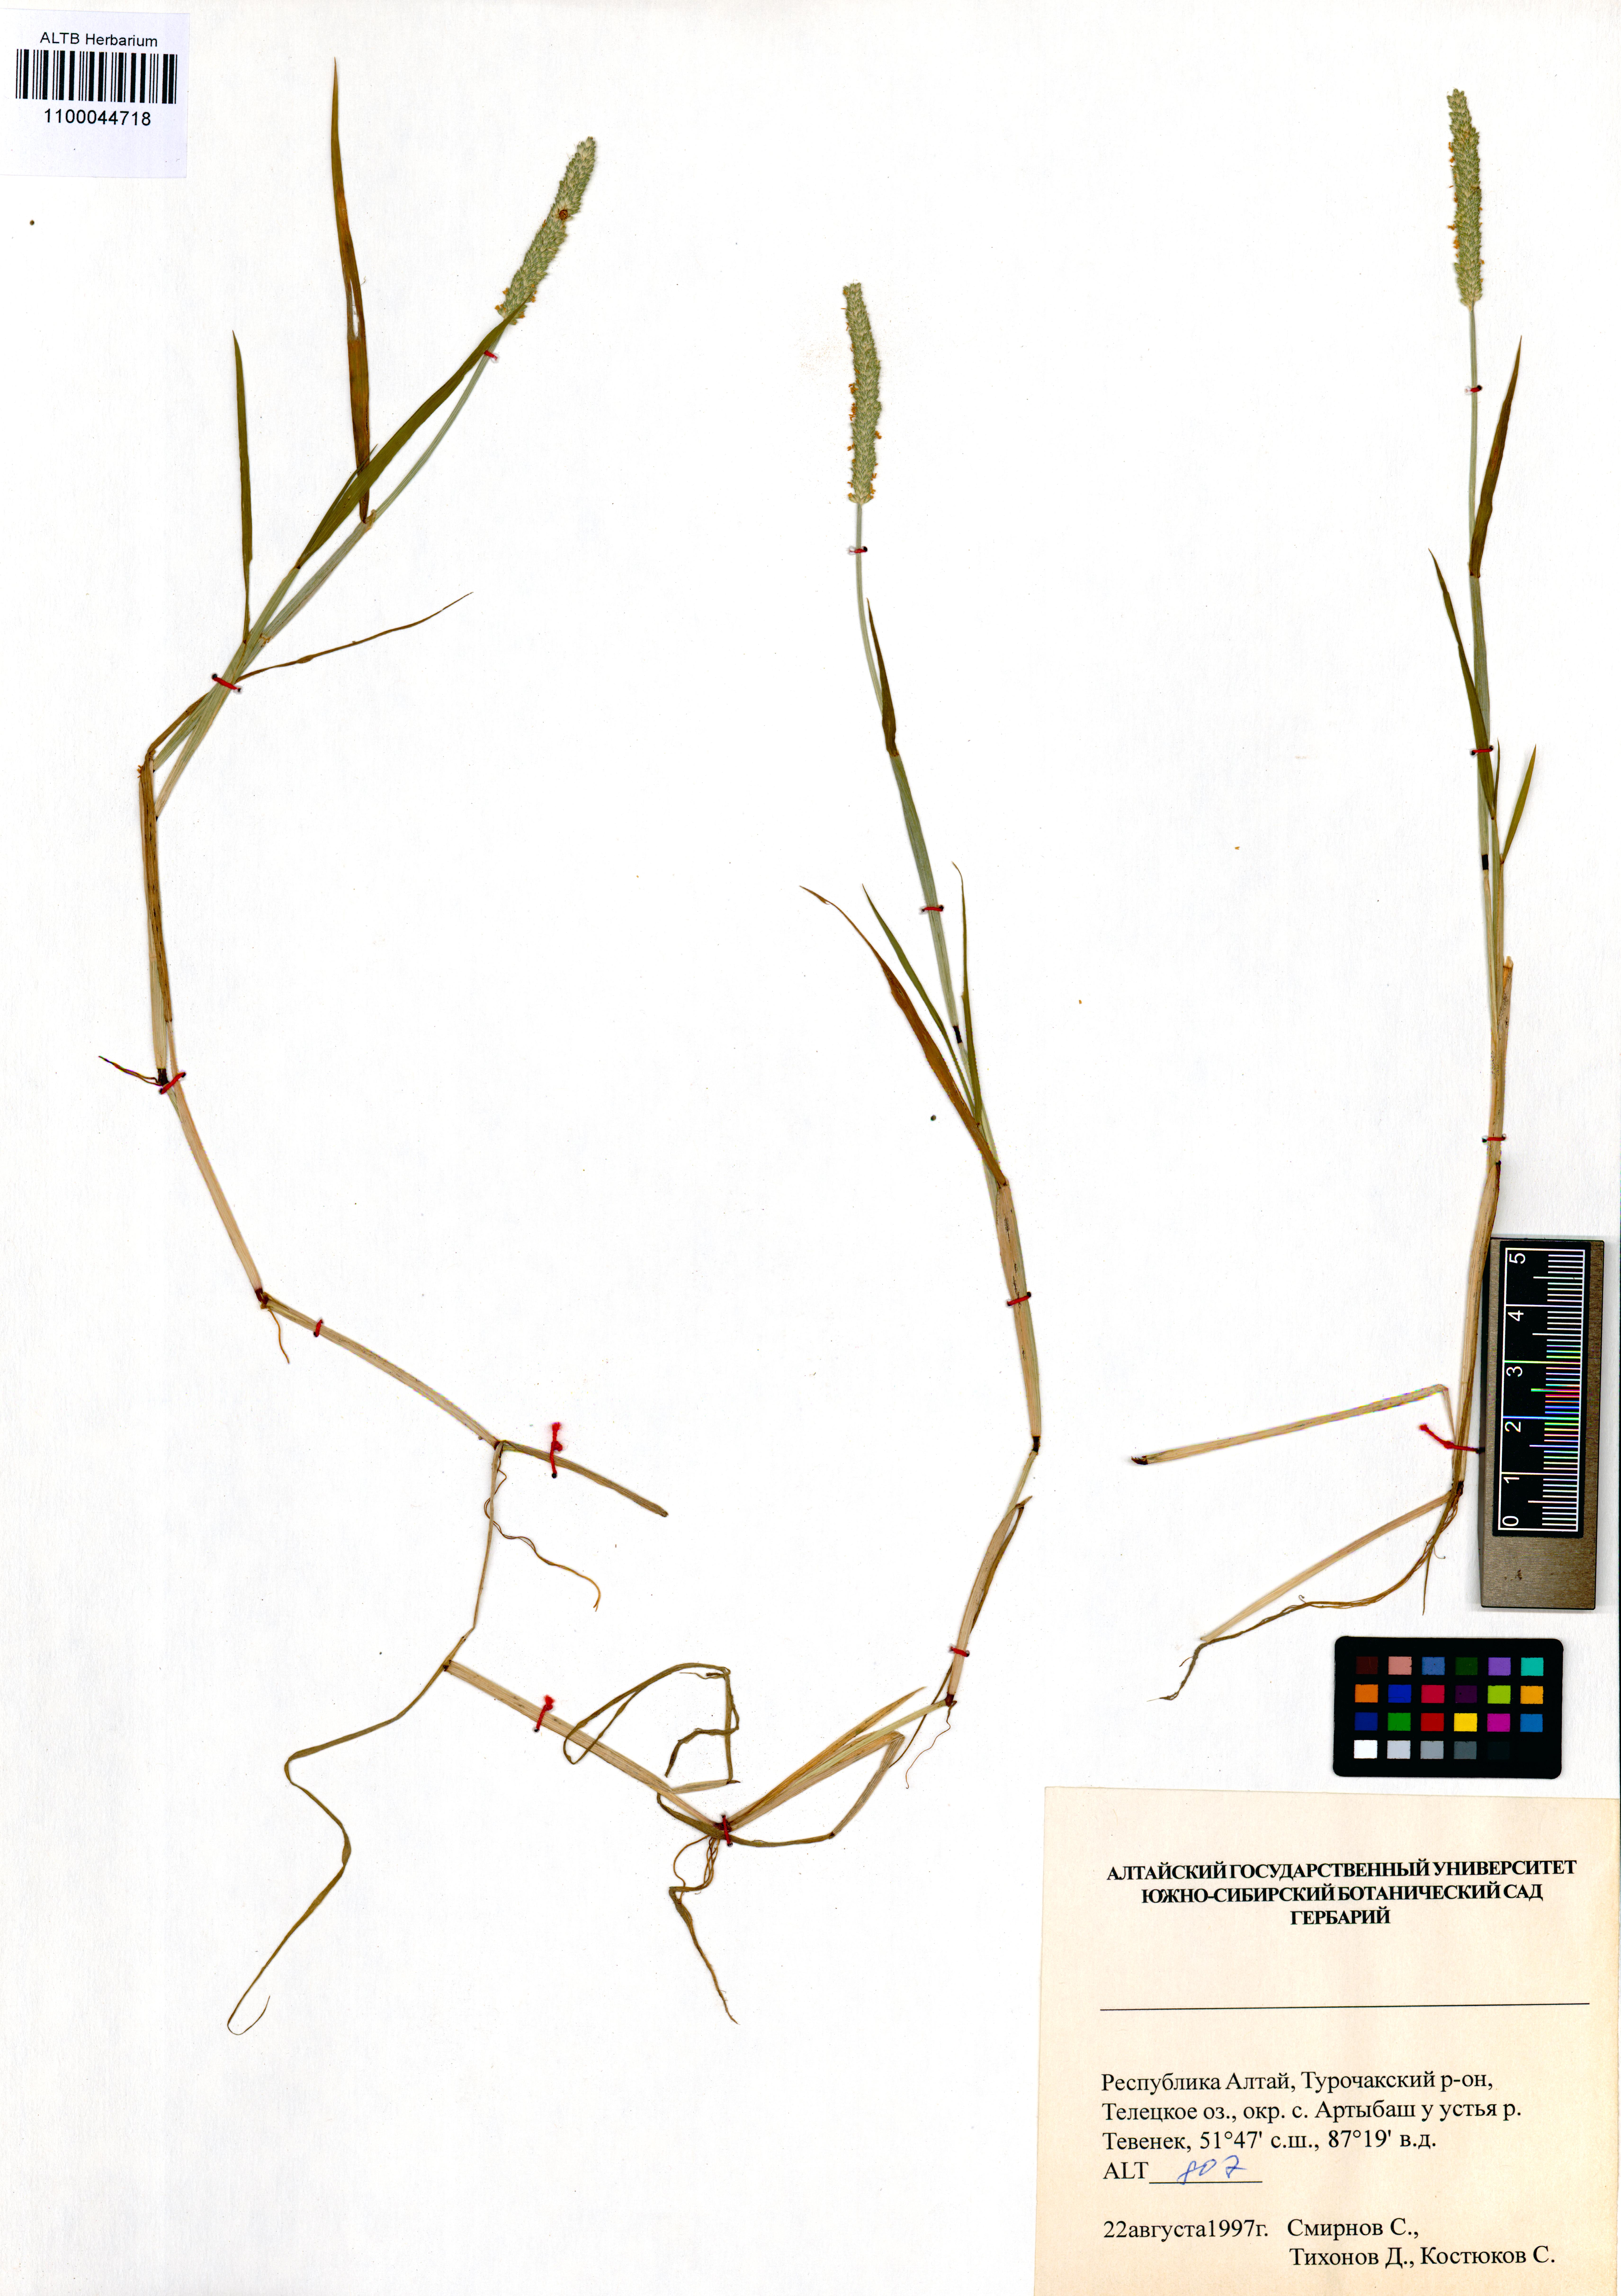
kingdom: Plantae
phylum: Tracheophyta
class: Liliopsida
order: Poales
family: Poaceae
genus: Alopecurus
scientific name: Alopecurus aequalis
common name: Orange foxtail
